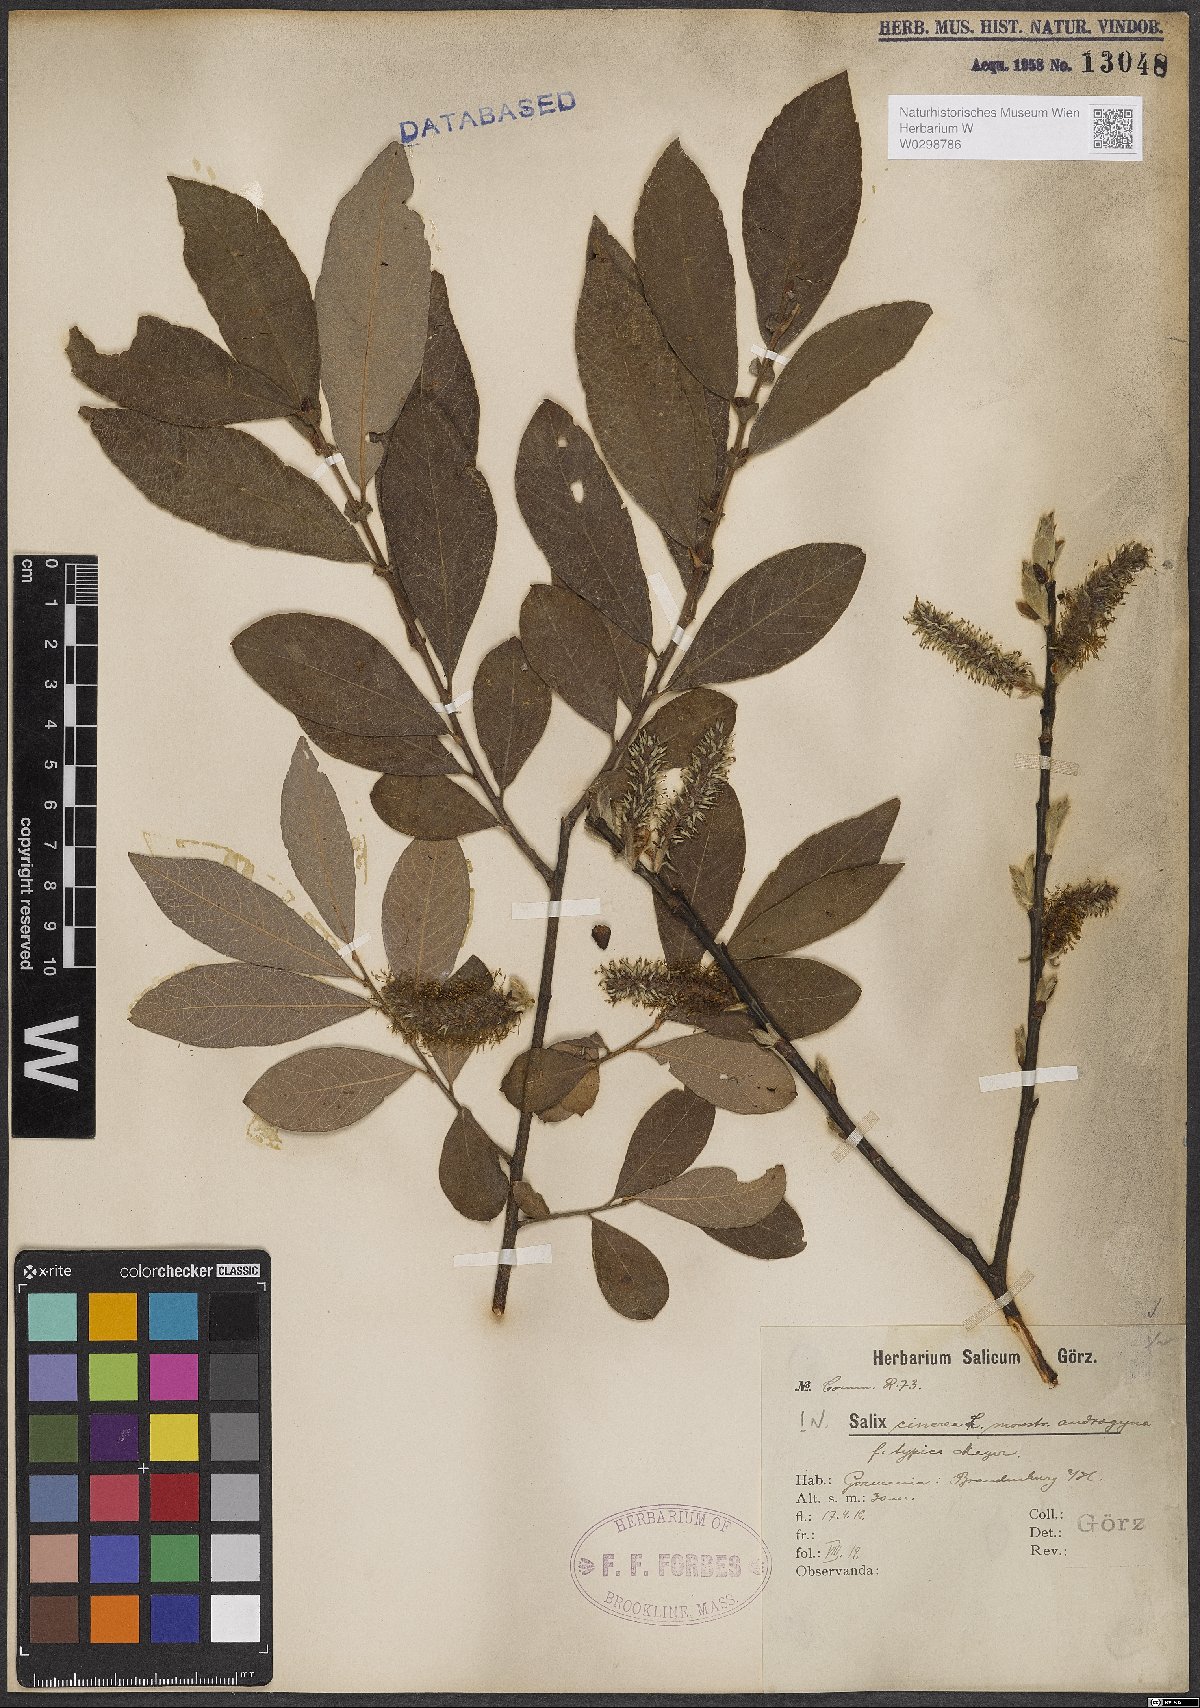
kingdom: Plantae
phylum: Tracheophyta
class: Magnoliopsida
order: Malpighiales
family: Salicaceae
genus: Salix
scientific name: Salix cinerea
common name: Common sallow
